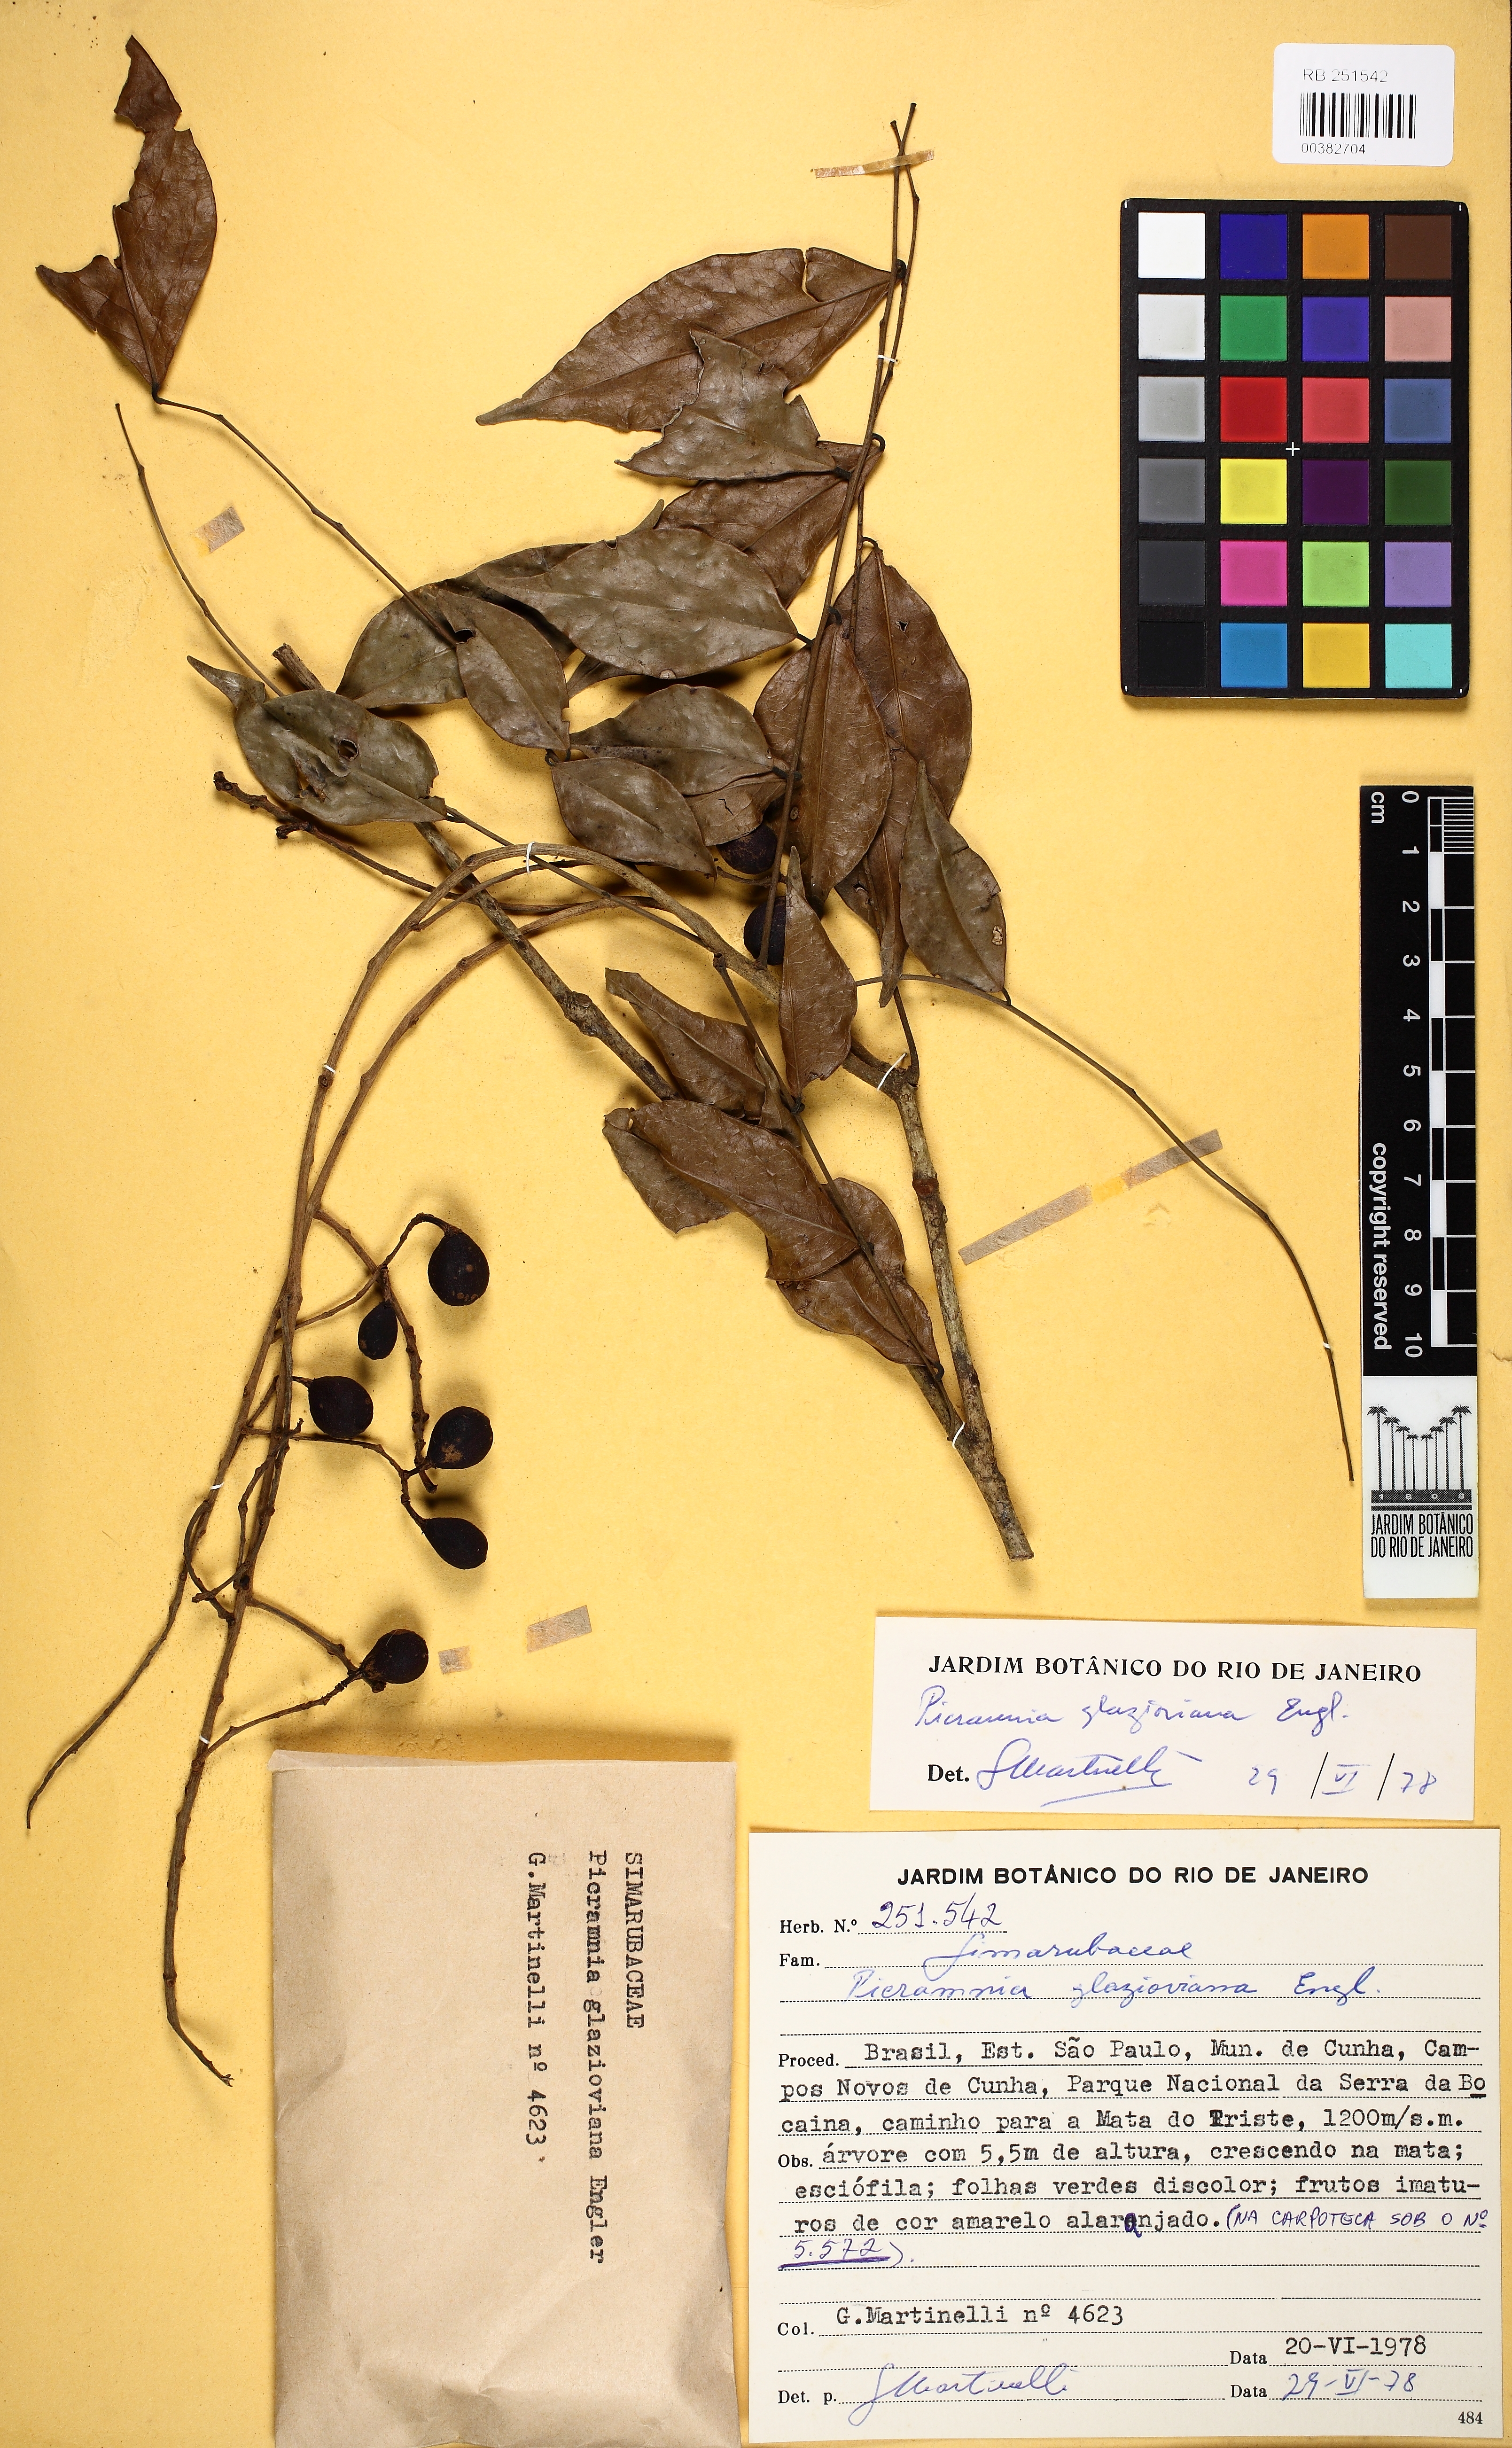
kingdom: Plantae
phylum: Tracheophyta
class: Magnoliopsida
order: Picramniales
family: Picramniaceae
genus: Picramnia
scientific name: Picramnia glazioviana
